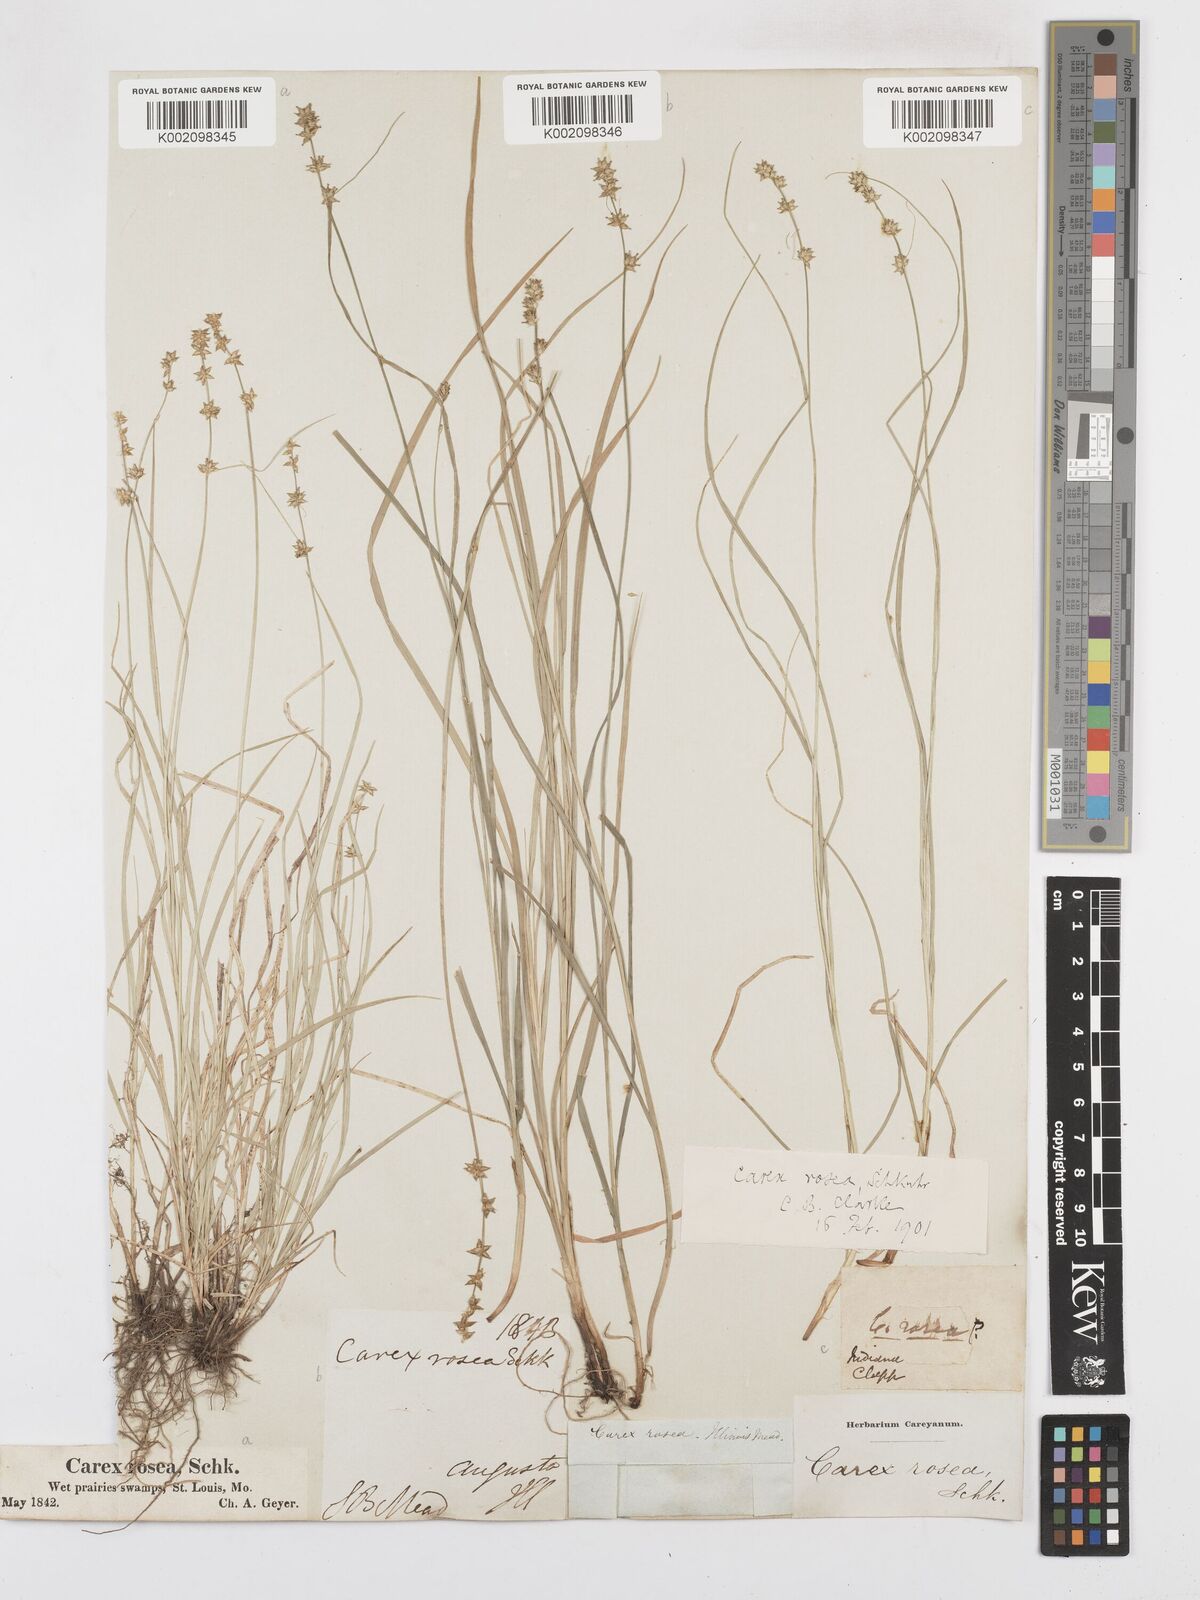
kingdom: Plantae
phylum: Tracheophyta
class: Liliopsida
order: Poales
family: Cyperaceae
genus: Carex
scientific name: Carex rosea
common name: Curly-styled wood sedge
